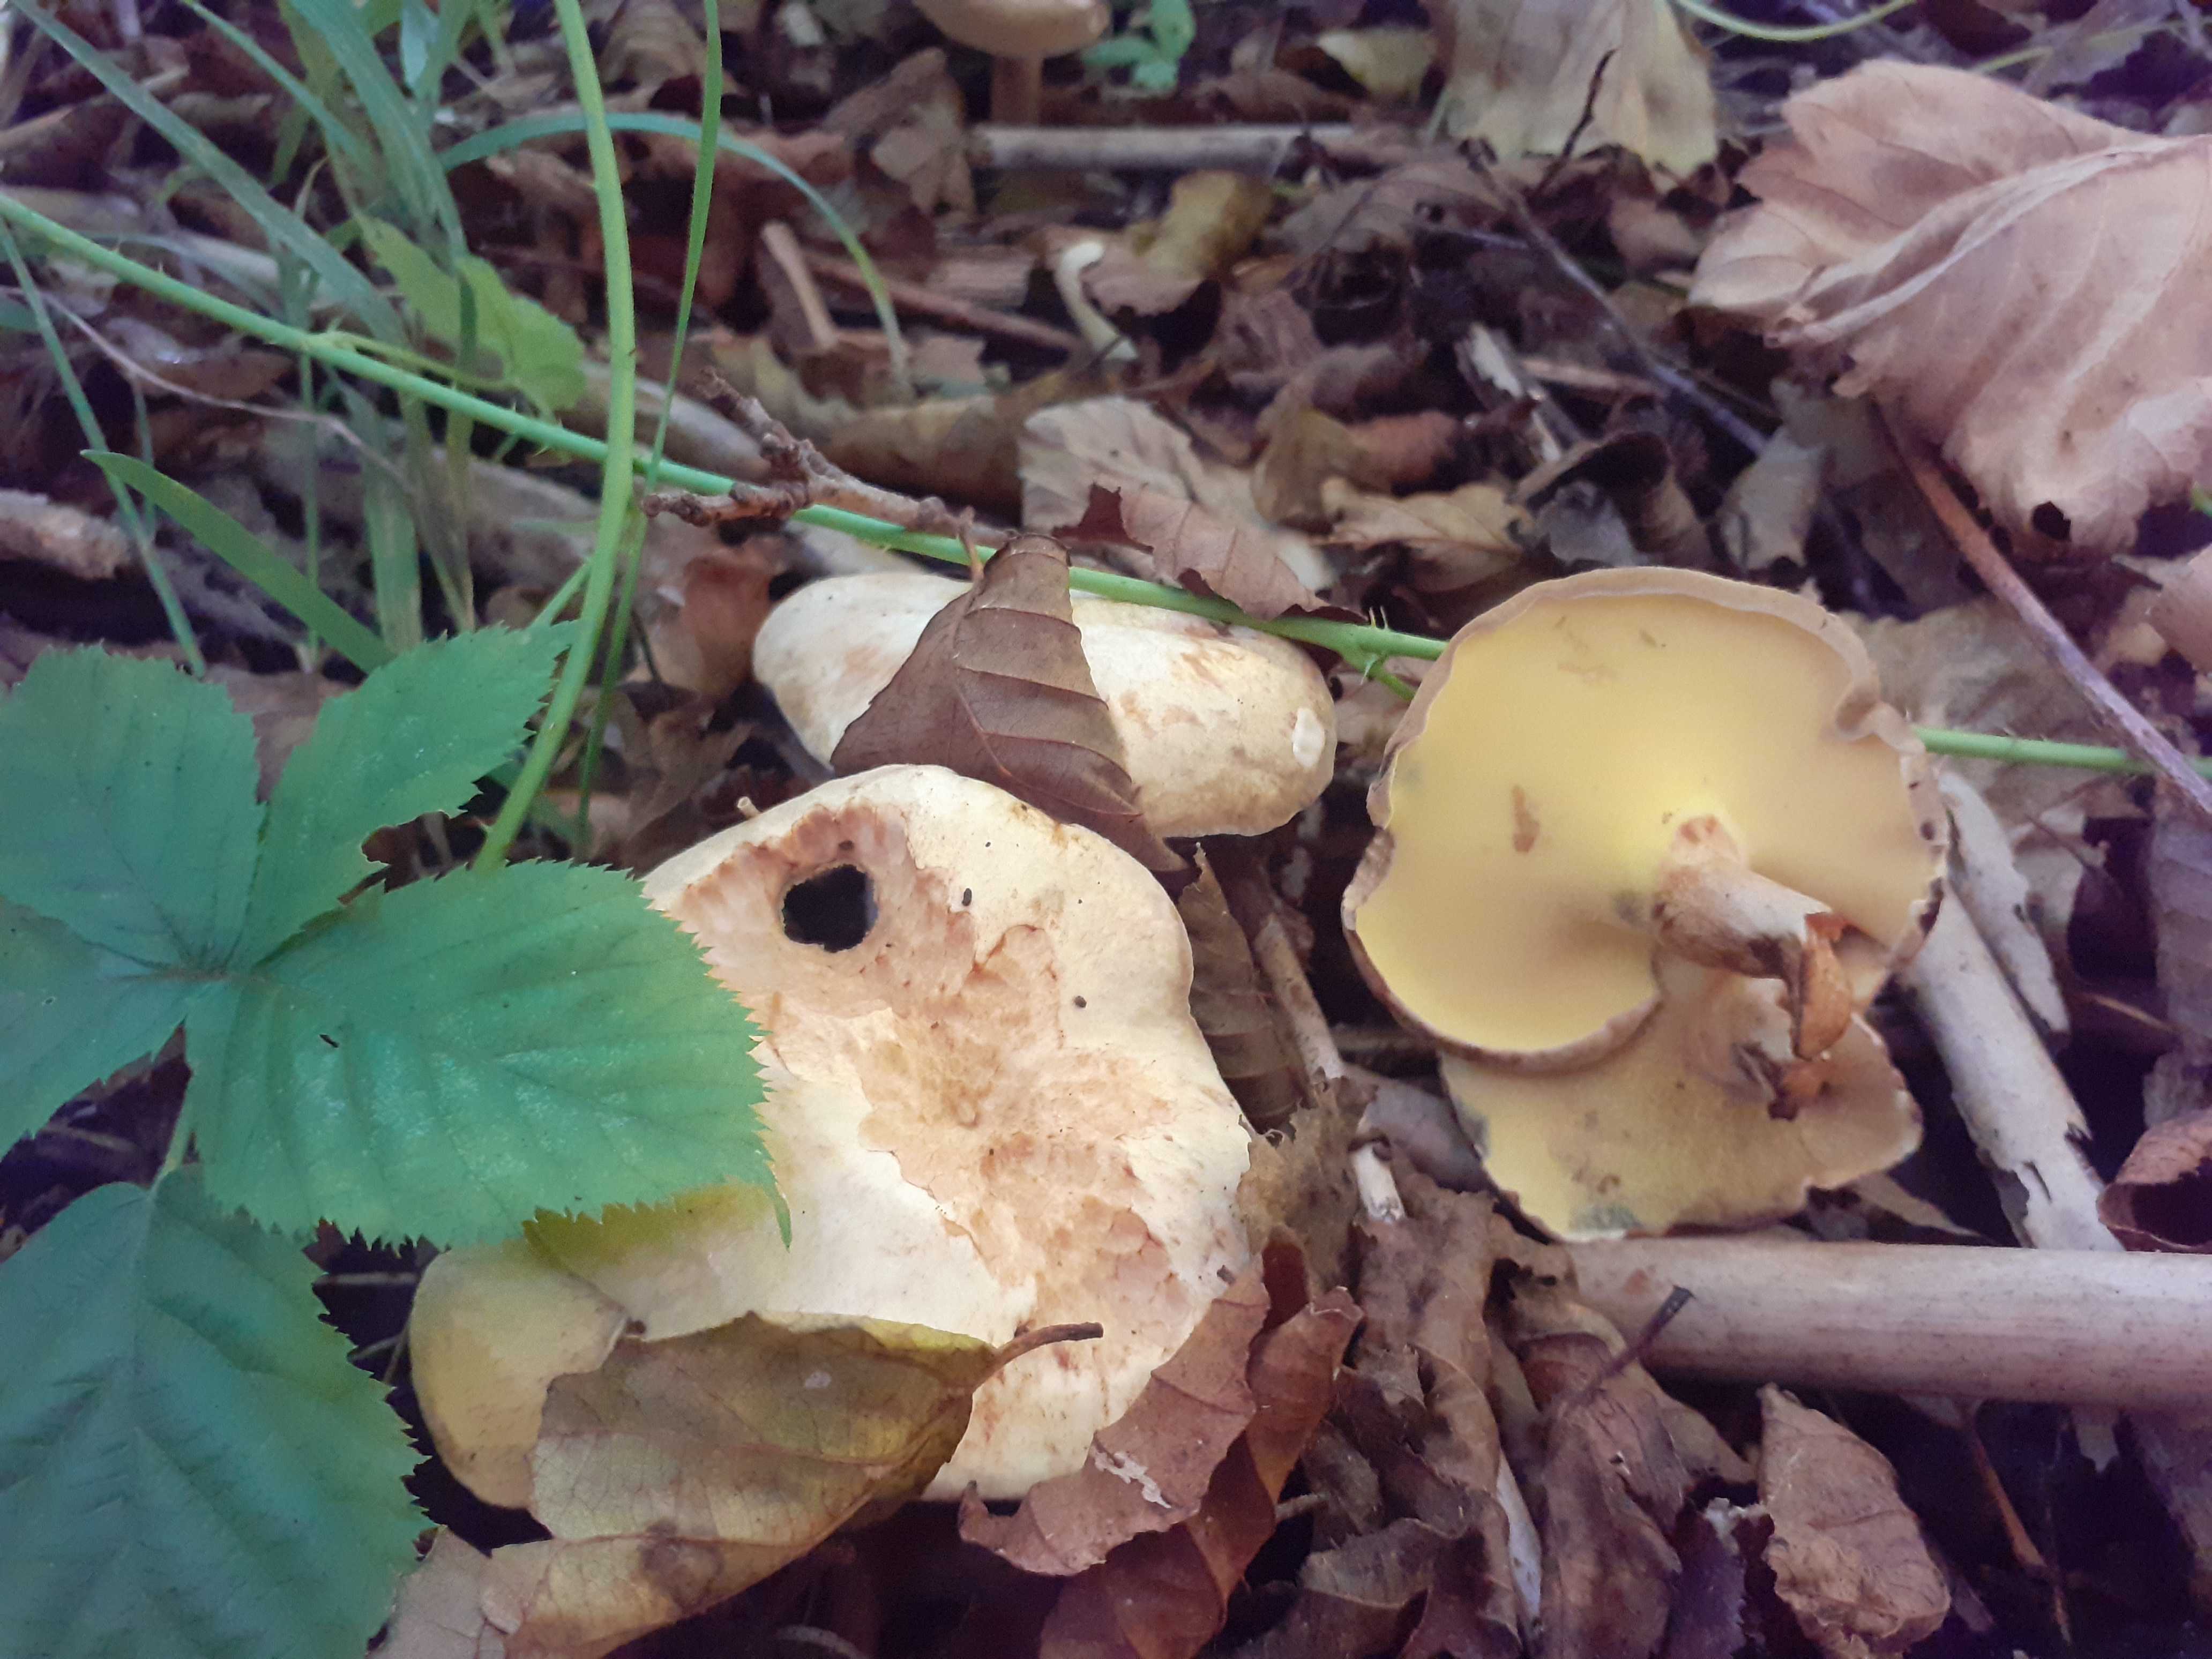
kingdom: Fungi
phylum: Basidiomycota
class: Agaricomycetes
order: Boletales
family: Paxillaceae
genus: Gyrodon
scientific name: Gyrodon lividus
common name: ellerørhat
